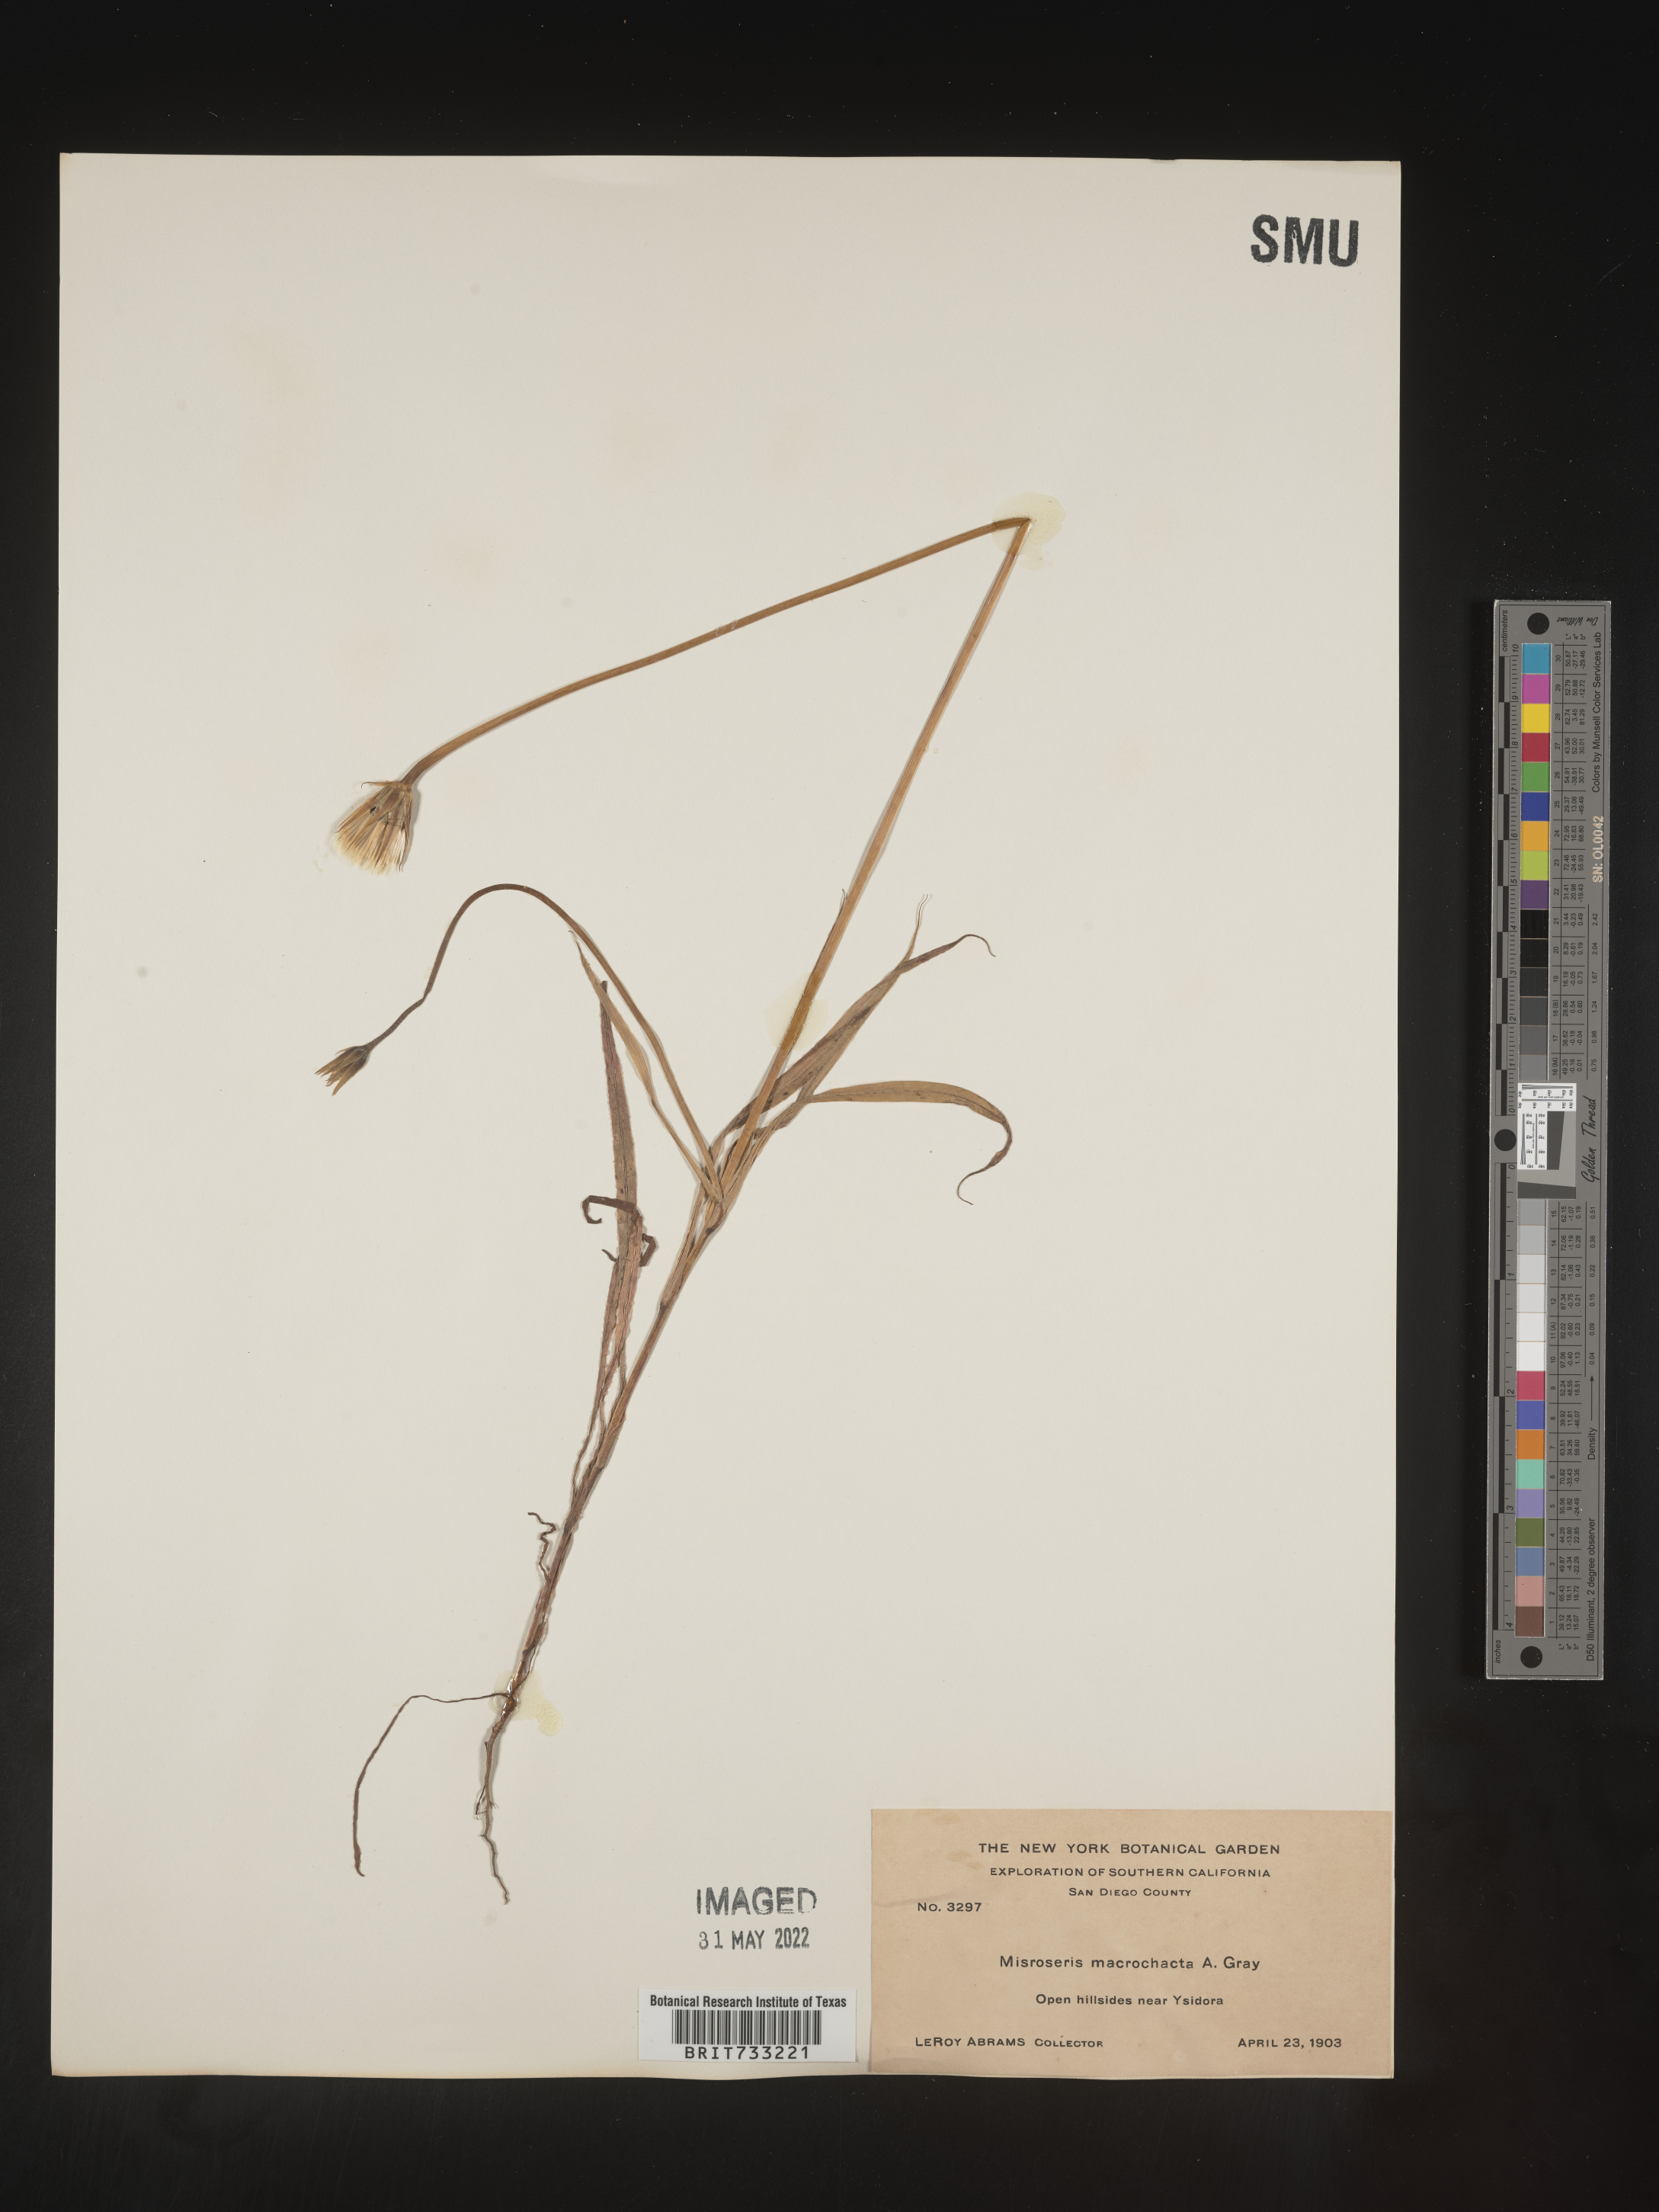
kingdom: Plantae
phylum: Tracheophyta
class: Magnoliopsida
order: Asterales
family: Asteraceae
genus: Microseris
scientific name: Microseris
